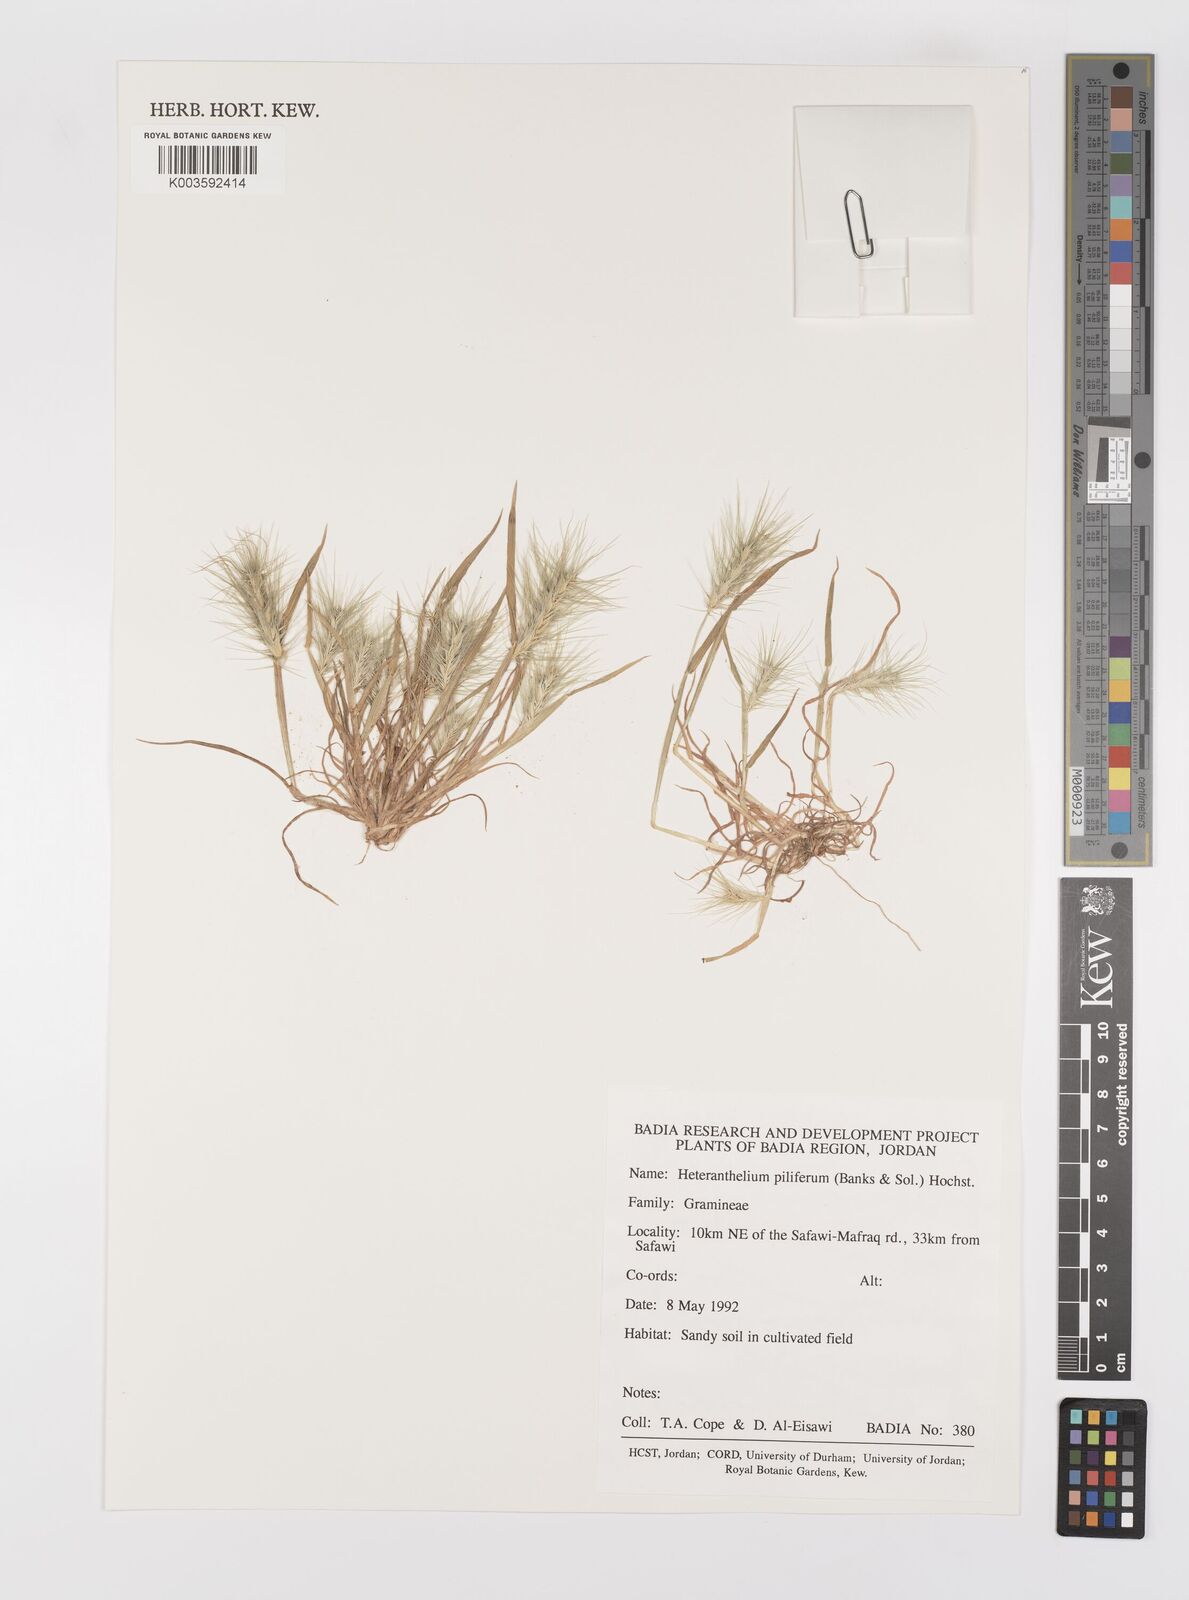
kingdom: Plantae
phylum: Tracheophyta
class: Liliopsida
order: Poales
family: Poaceae
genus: Heteranthelium
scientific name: Heteranthelium piliferum
